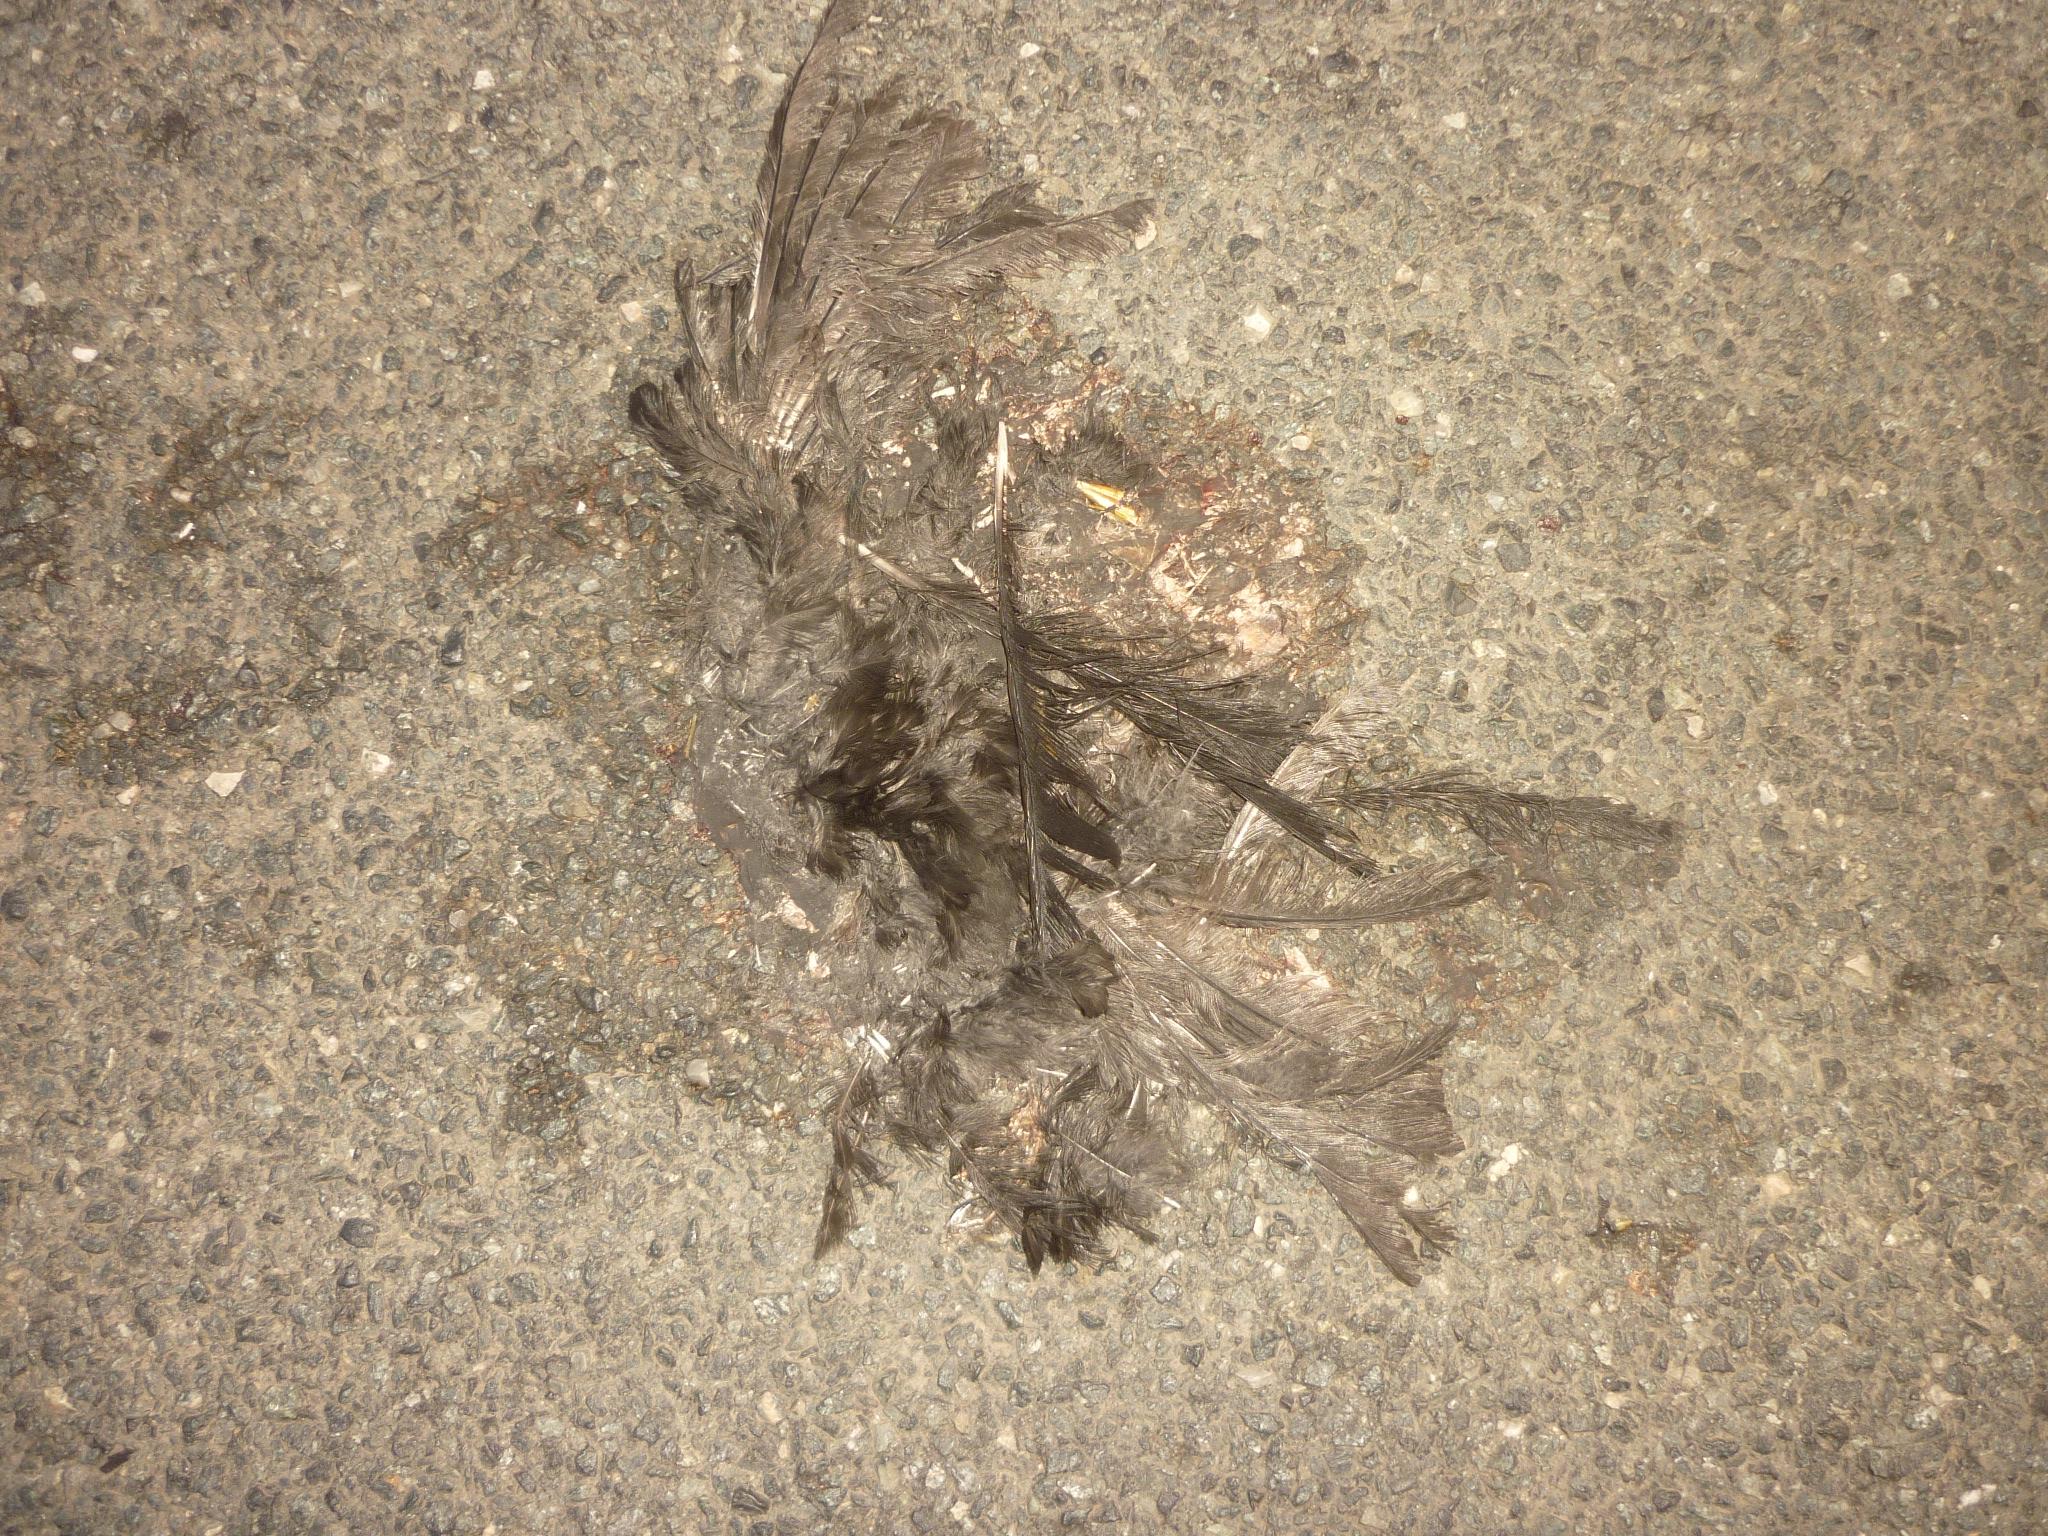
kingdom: Animalia
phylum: Chordata
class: Aves
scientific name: Aves
